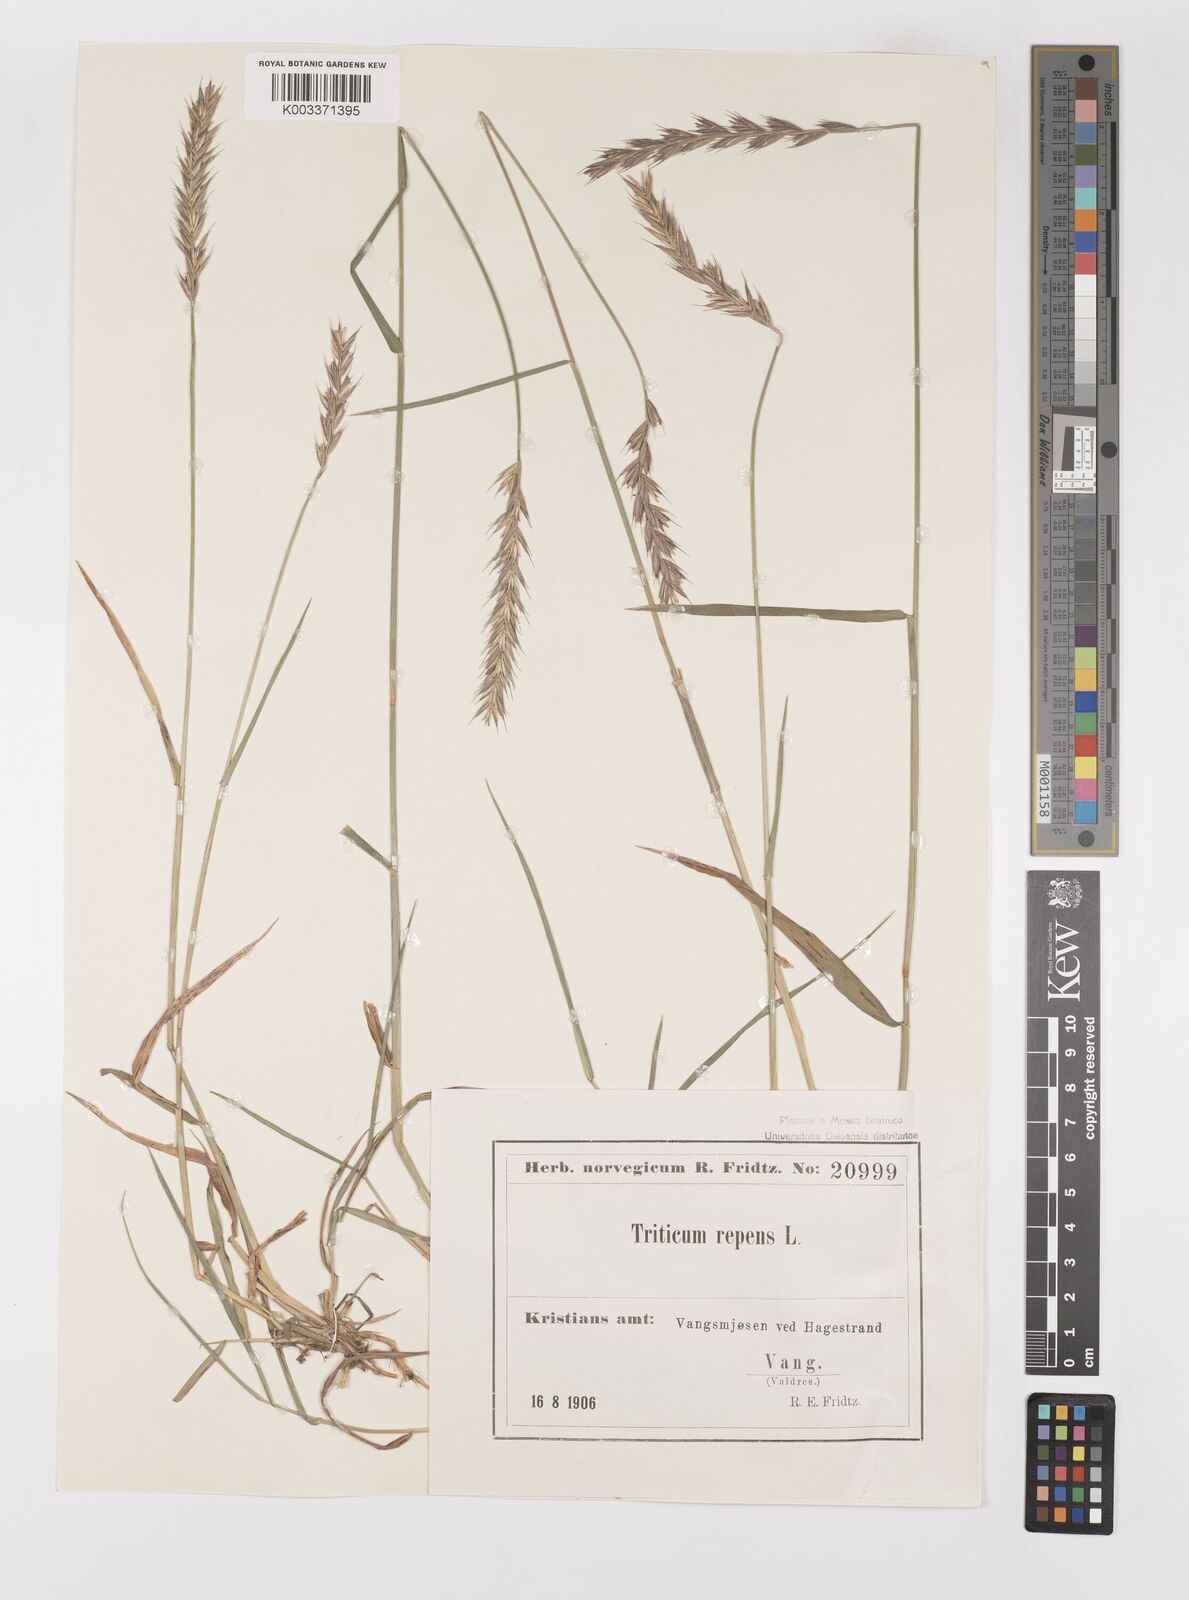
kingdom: Plantae
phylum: Tracheophyta
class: Liliopsida
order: Poales
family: Poaceae
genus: Elymus
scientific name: Elymus repens
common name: Quackgrass
